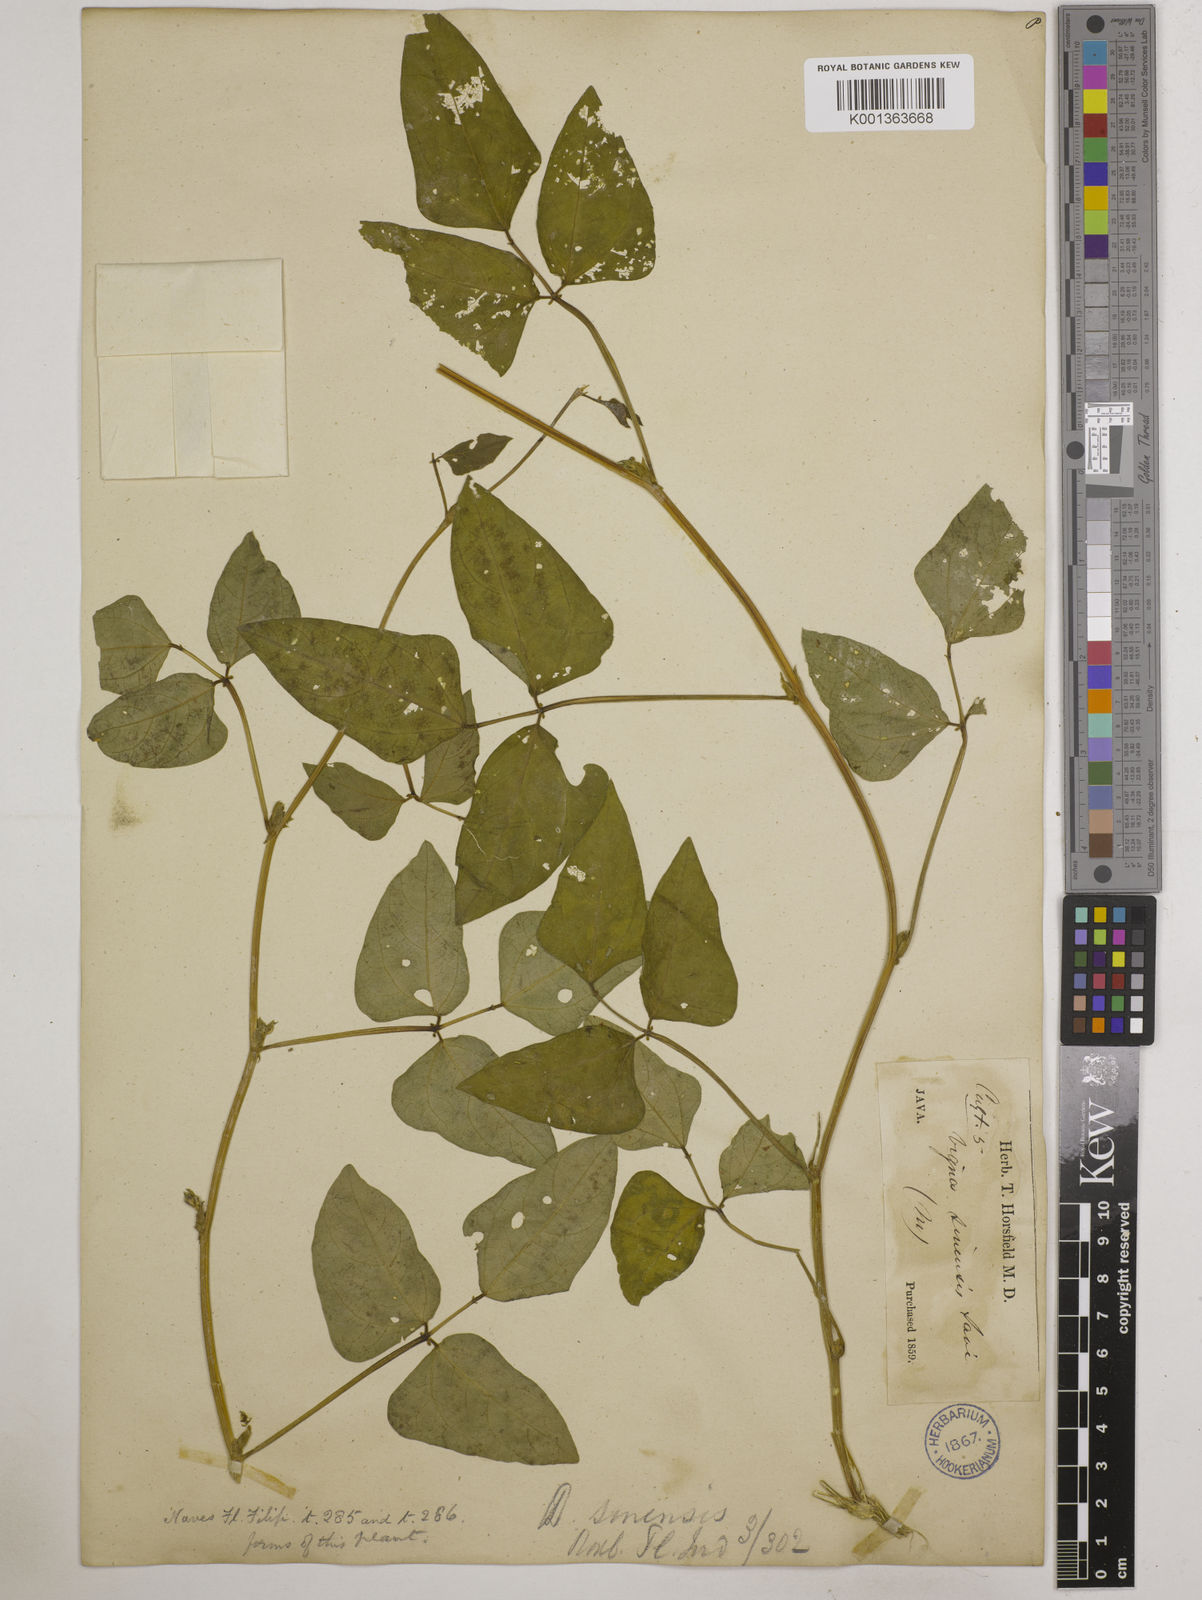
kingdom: Plantae
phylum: Tracheophyta
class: Magnoliopsida
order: Fabales
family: Fabaceae
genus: Vigna
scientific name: Vigna unguiculata
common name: Cowpea
